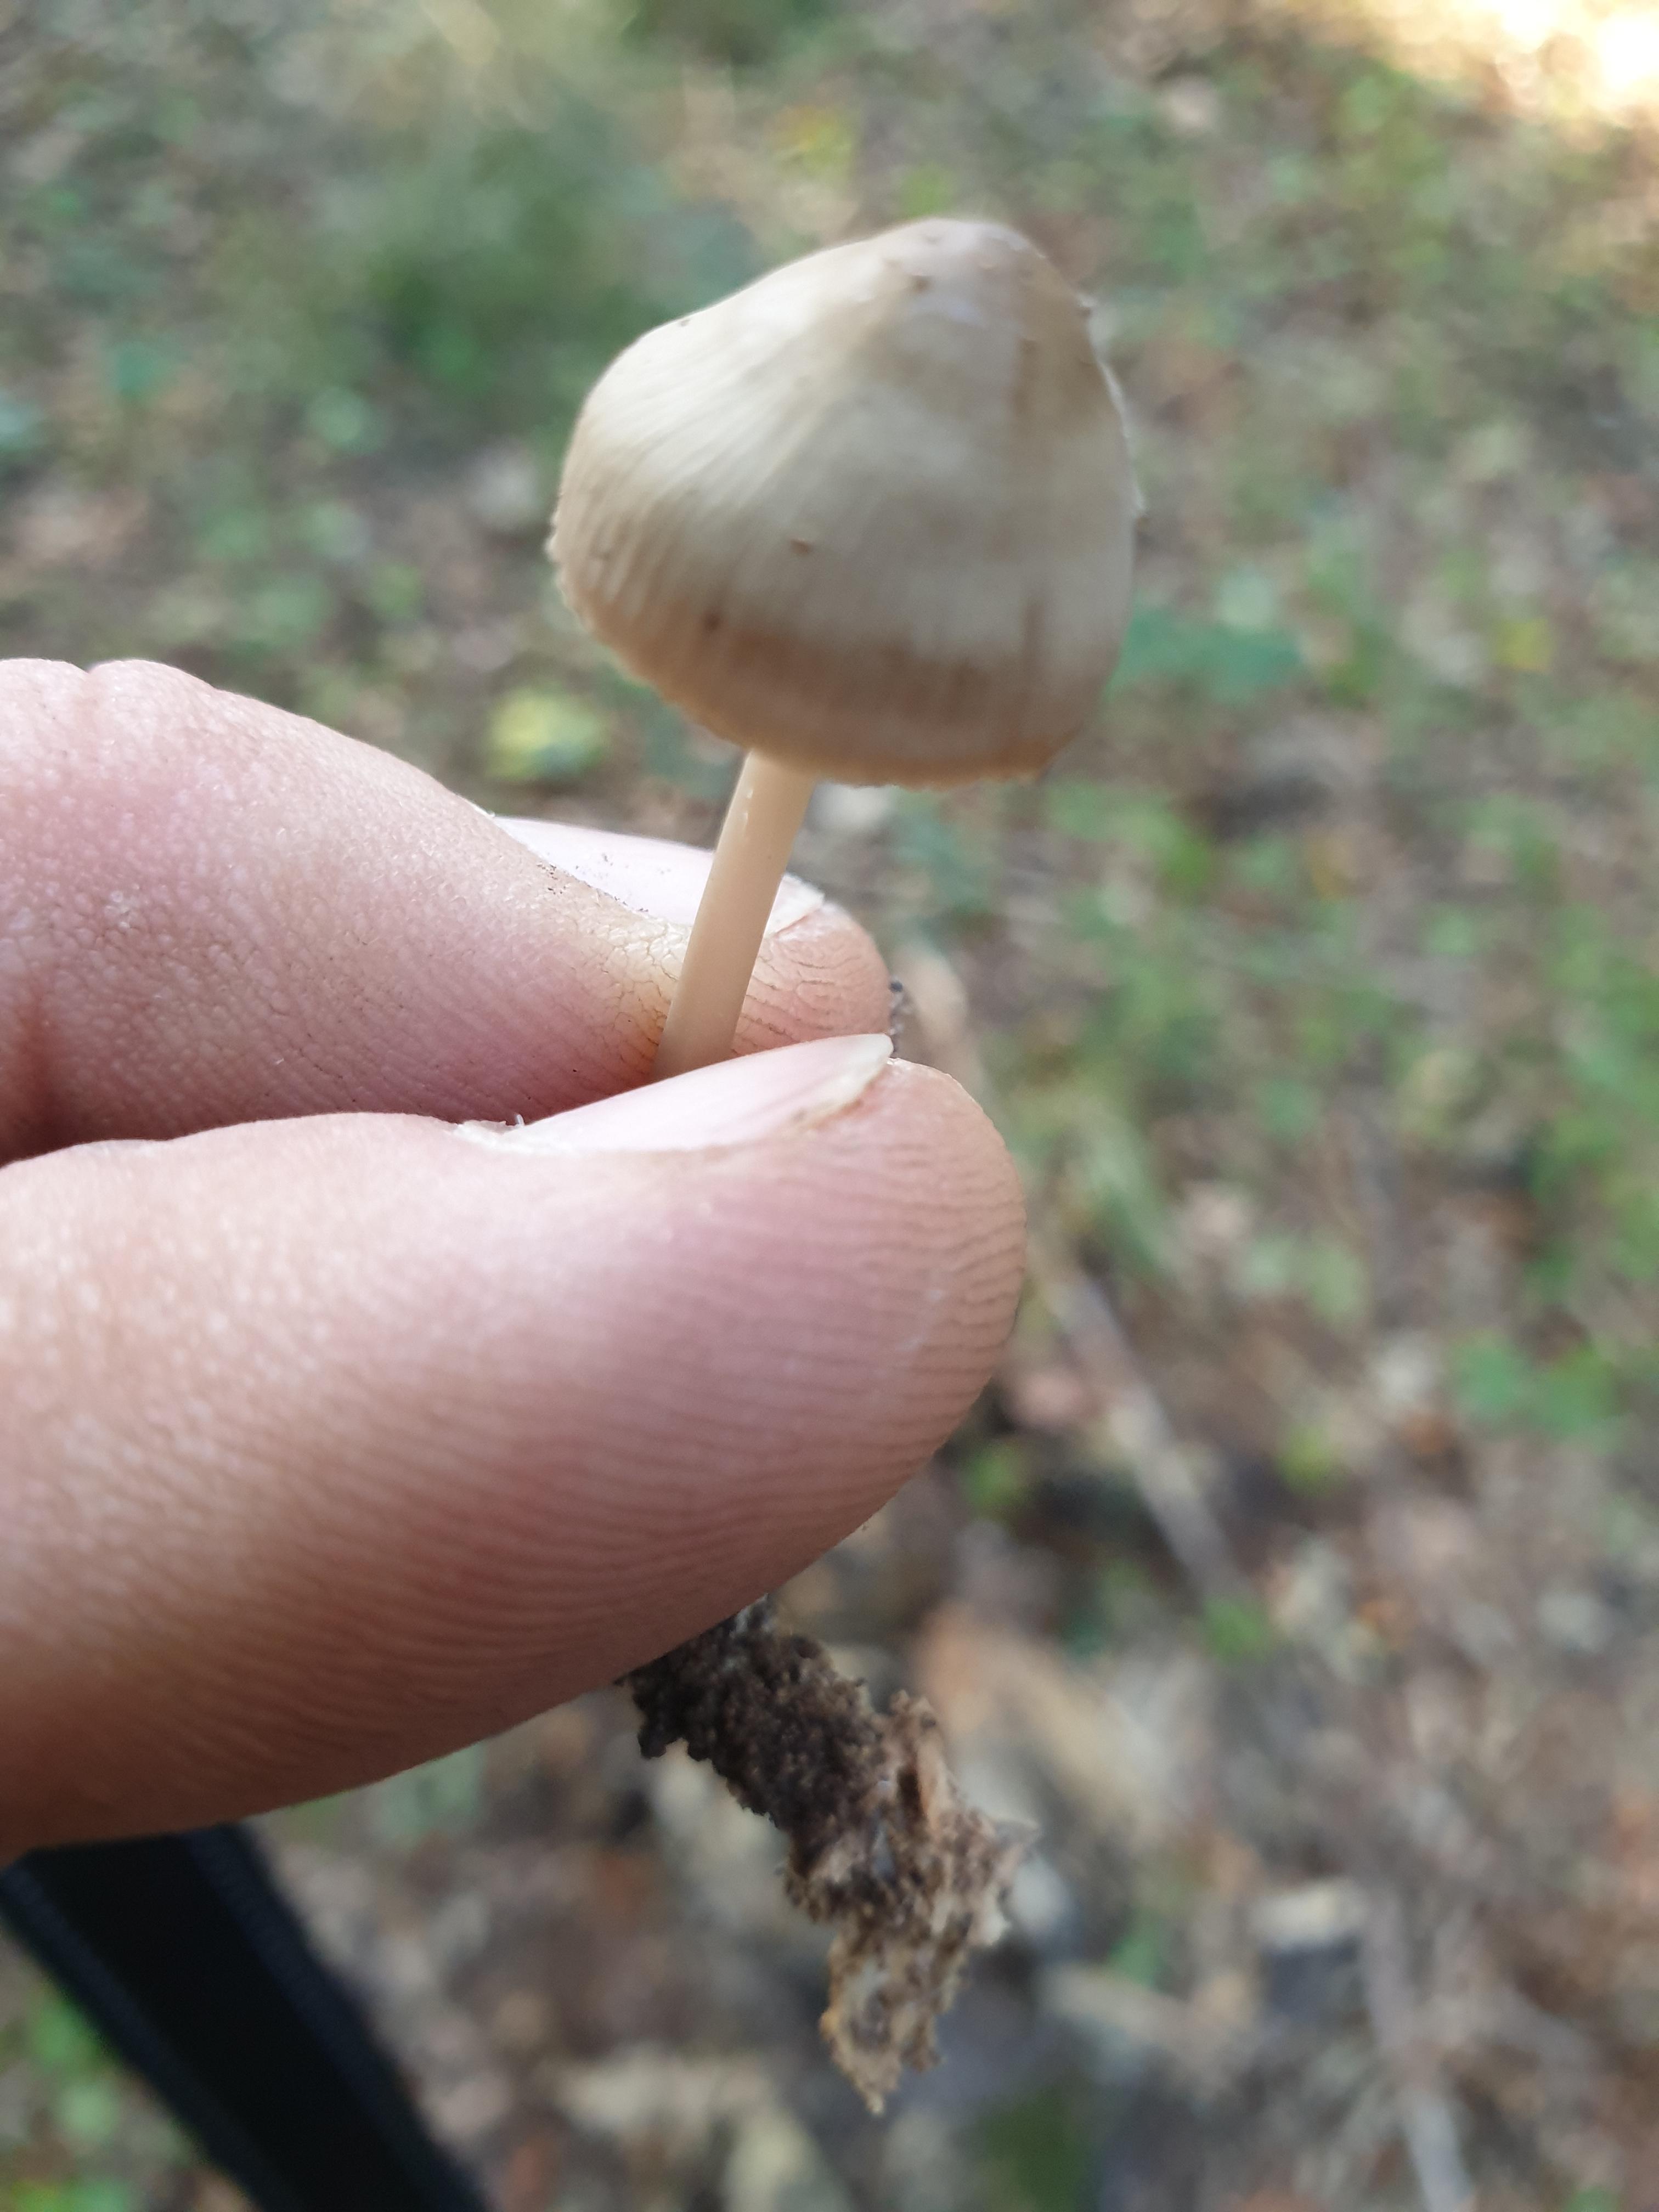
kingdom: Fungi
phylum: Basidiomycota
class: Agaricomycetes
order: Agaricales
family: Mycenaceae
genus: Mycena
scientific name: Mycena galericulata
